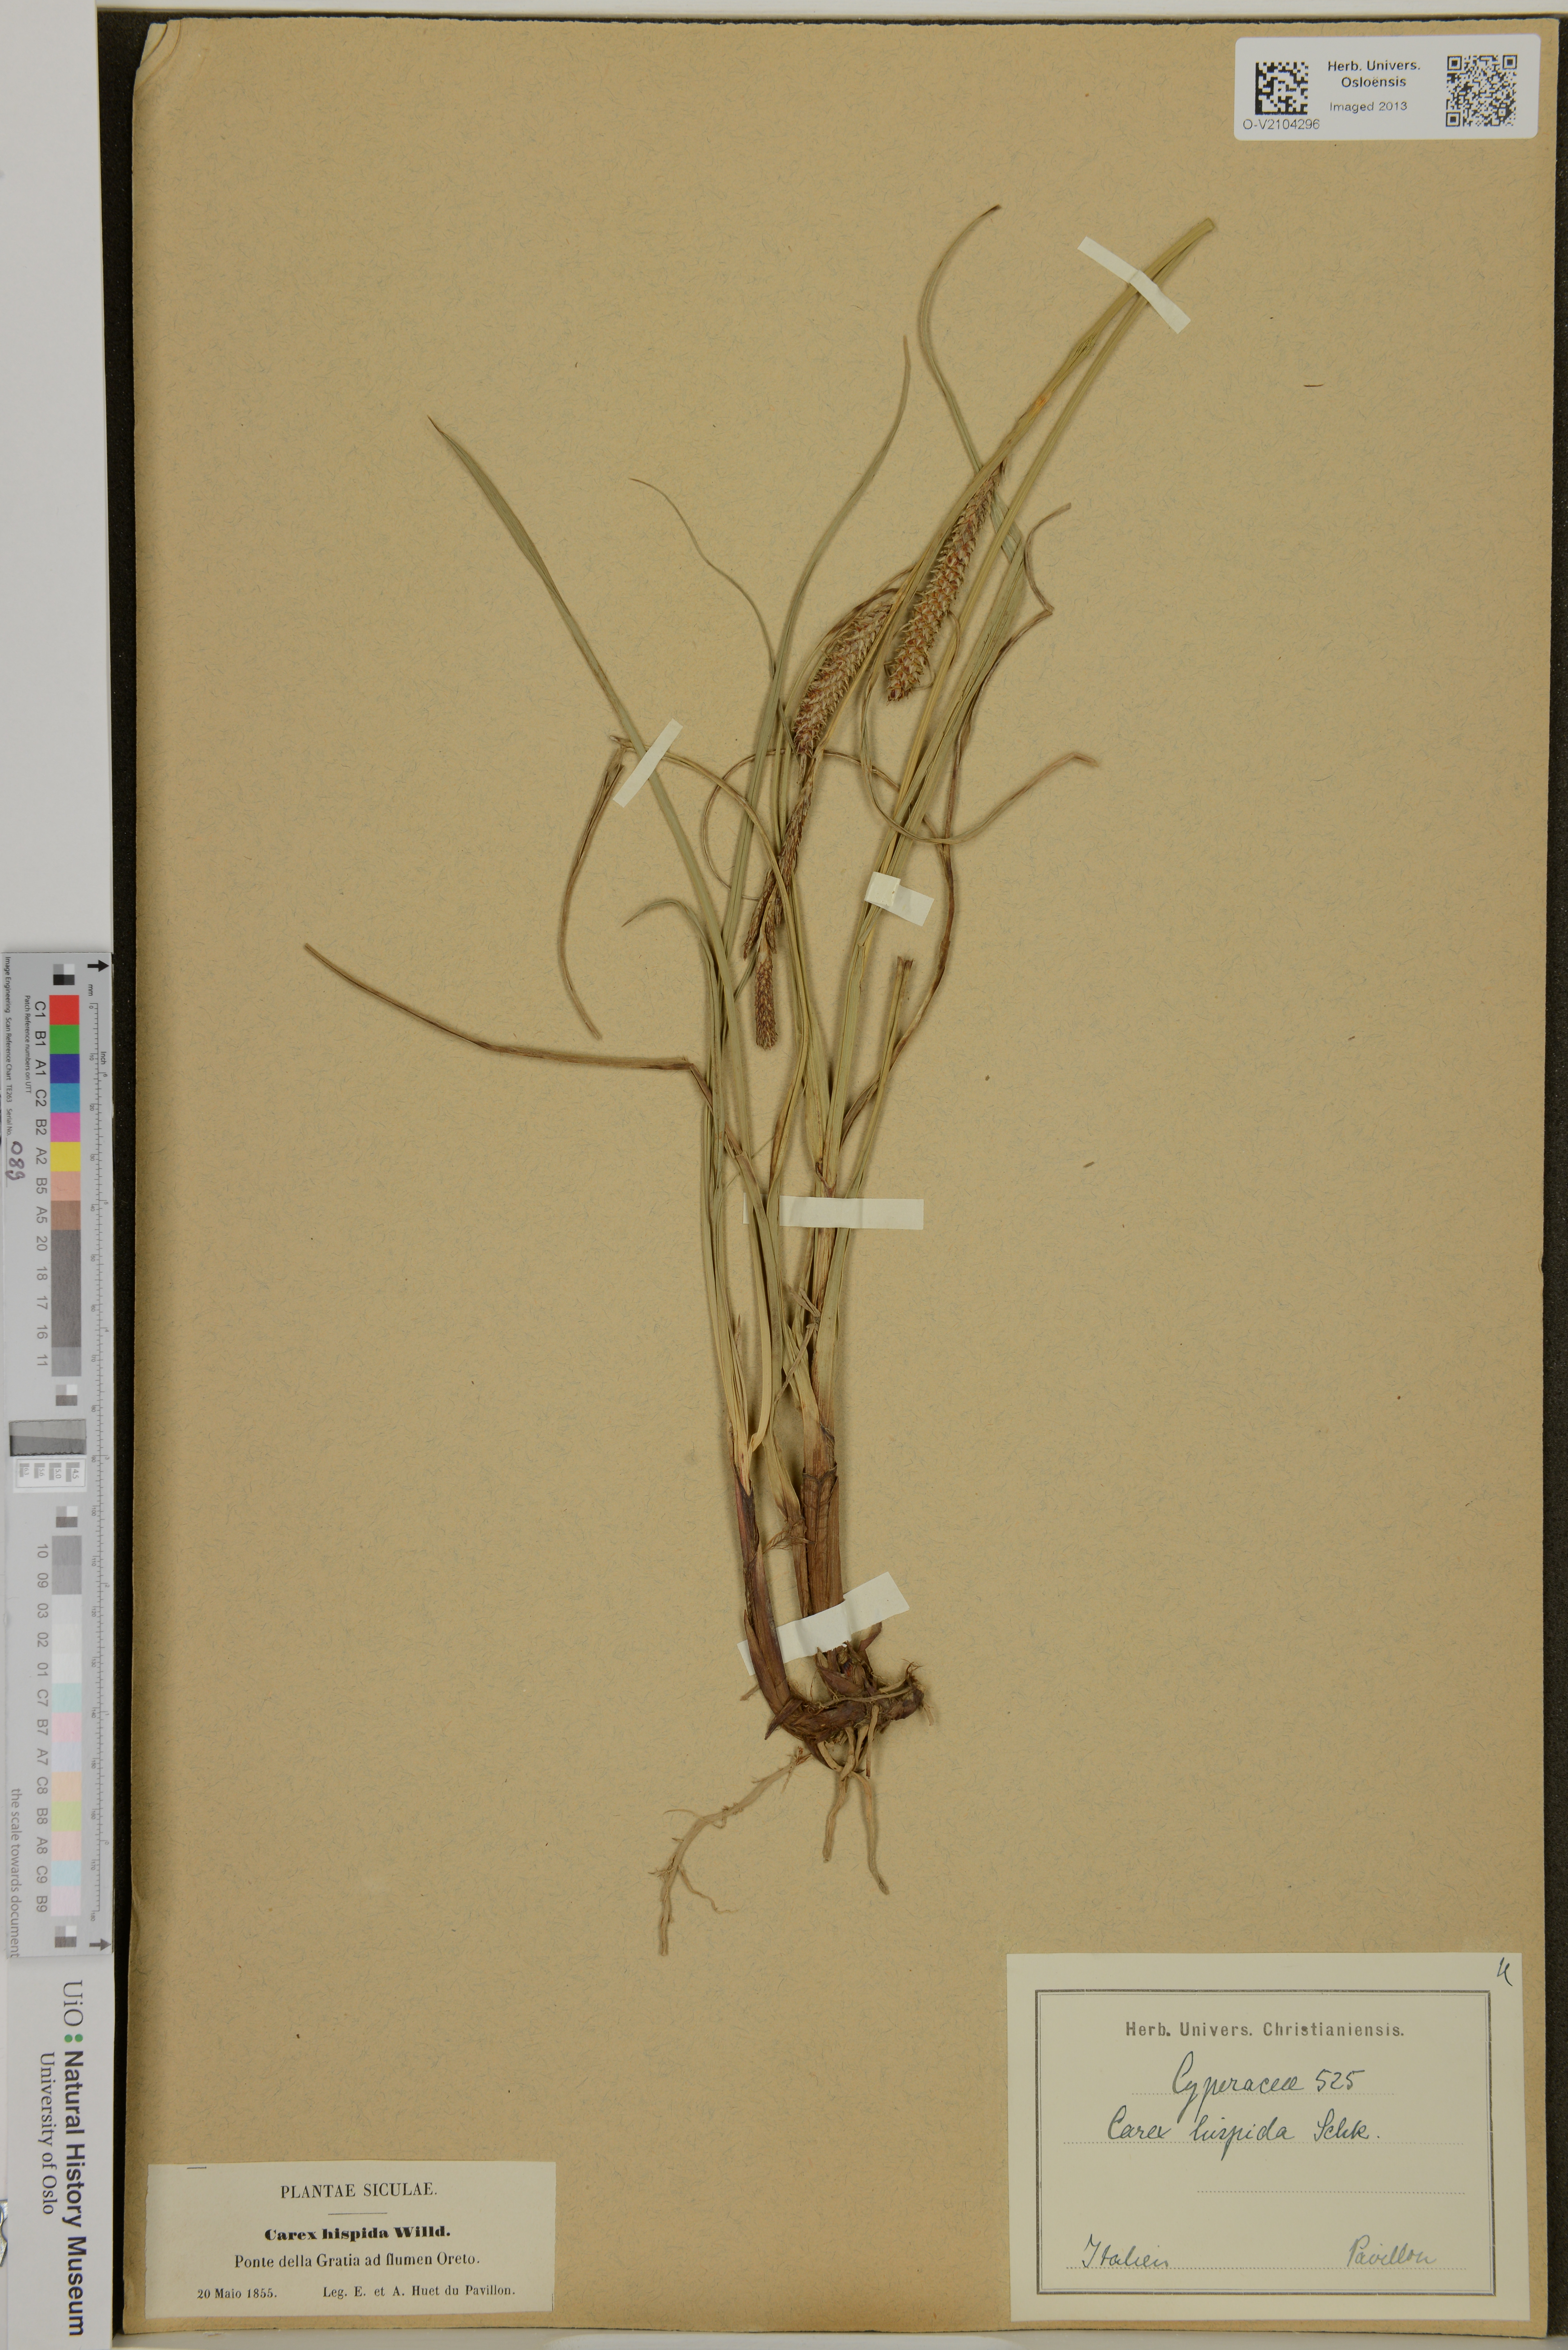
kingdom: Plantae
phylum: Tracheophyta
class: Liliopsida
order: Poales
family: Cyperaceae
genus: Carex
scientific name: Carex hispida
